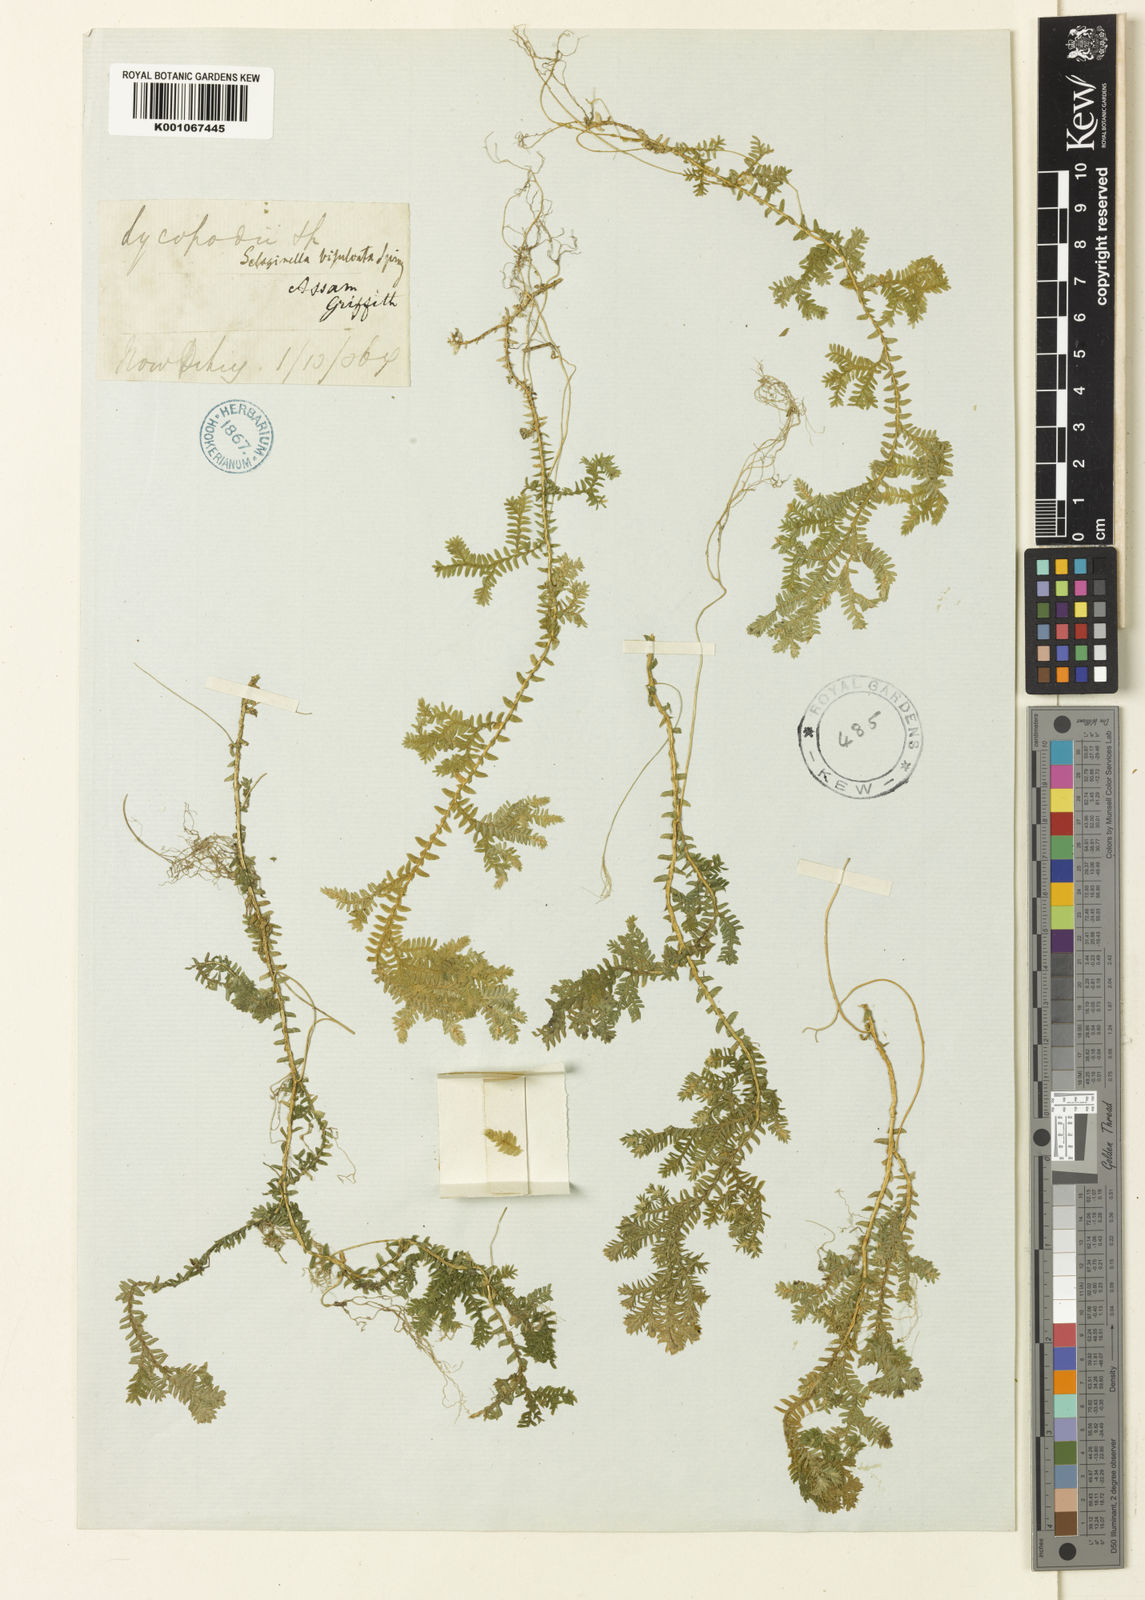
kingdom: Plantae
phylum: Tracheophyta
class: Lycopodiopsida
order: Selaginellales
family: Selaginellaceae
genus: Selaginella
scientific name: Selaginella bisulcata
